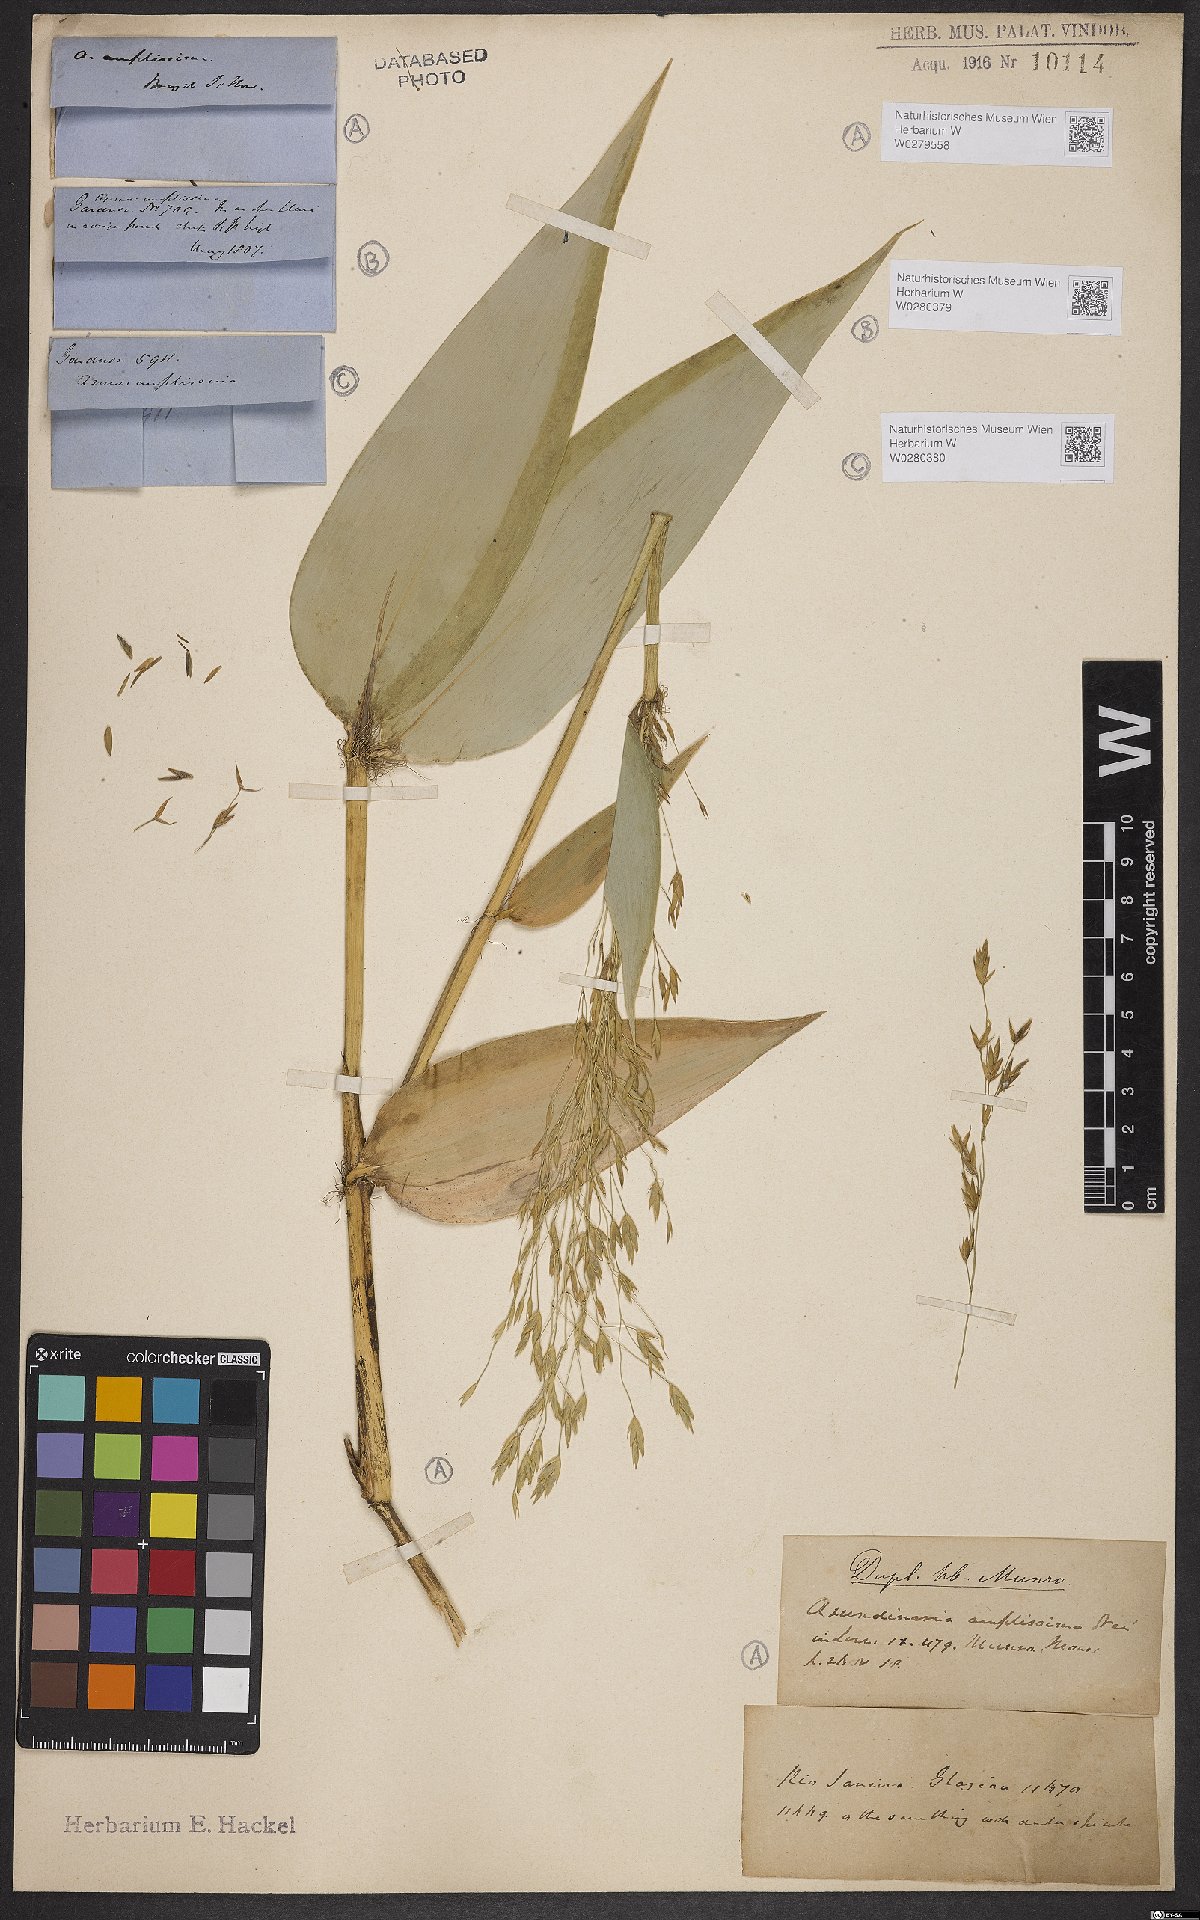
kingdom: Plantae
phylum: Tracheophyta
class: Liliopsida
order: Poales
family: Poaceae
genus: Aulonemia
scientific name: Aulonemia amplissima
